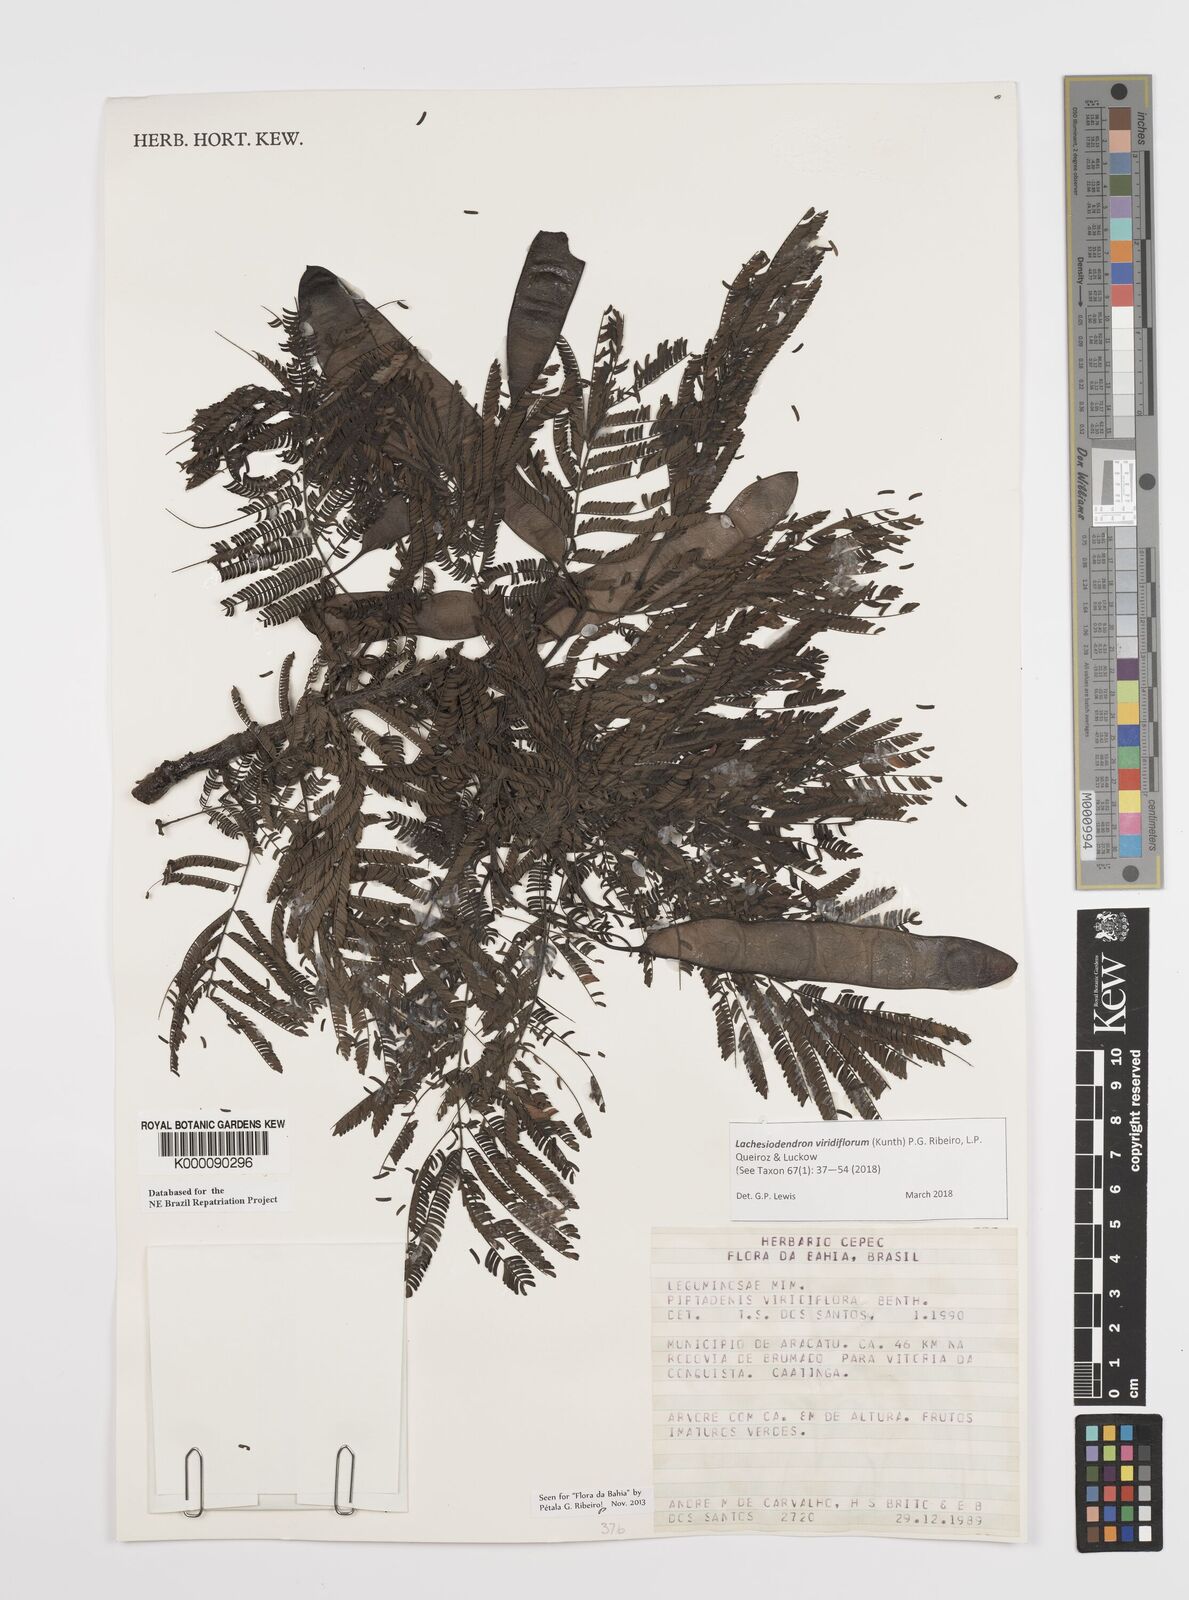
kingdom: Plantae
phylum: Tracheophyta
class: Magnoliopsida
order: Fabales
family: Fabaceae
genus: Lachesiodendron
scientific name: Lachesiodendron viridiflorum
